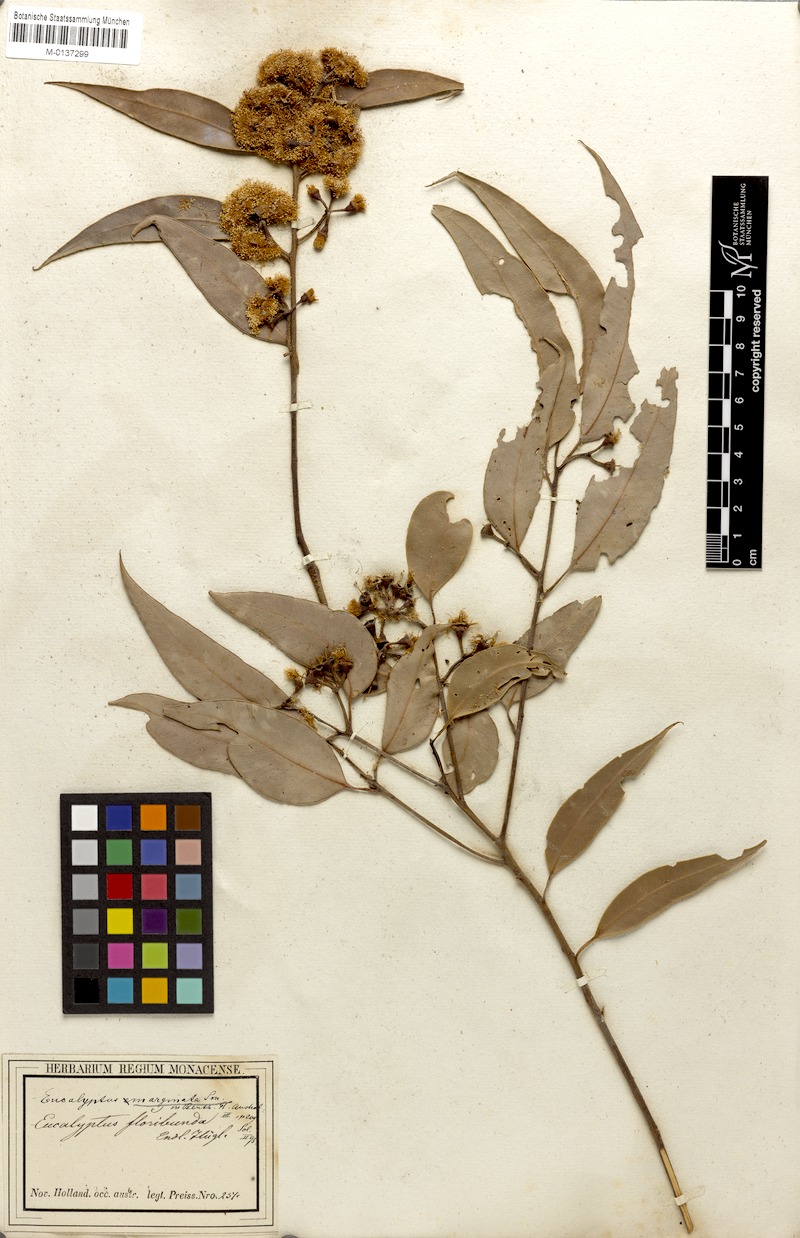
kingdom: Plantae
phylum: Tracheophyta
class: Magnoliopsida
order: Myrtales
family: Myrtaceae
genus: Eucalyptus
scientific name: Eucalyptus marginata
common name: Jarrah
